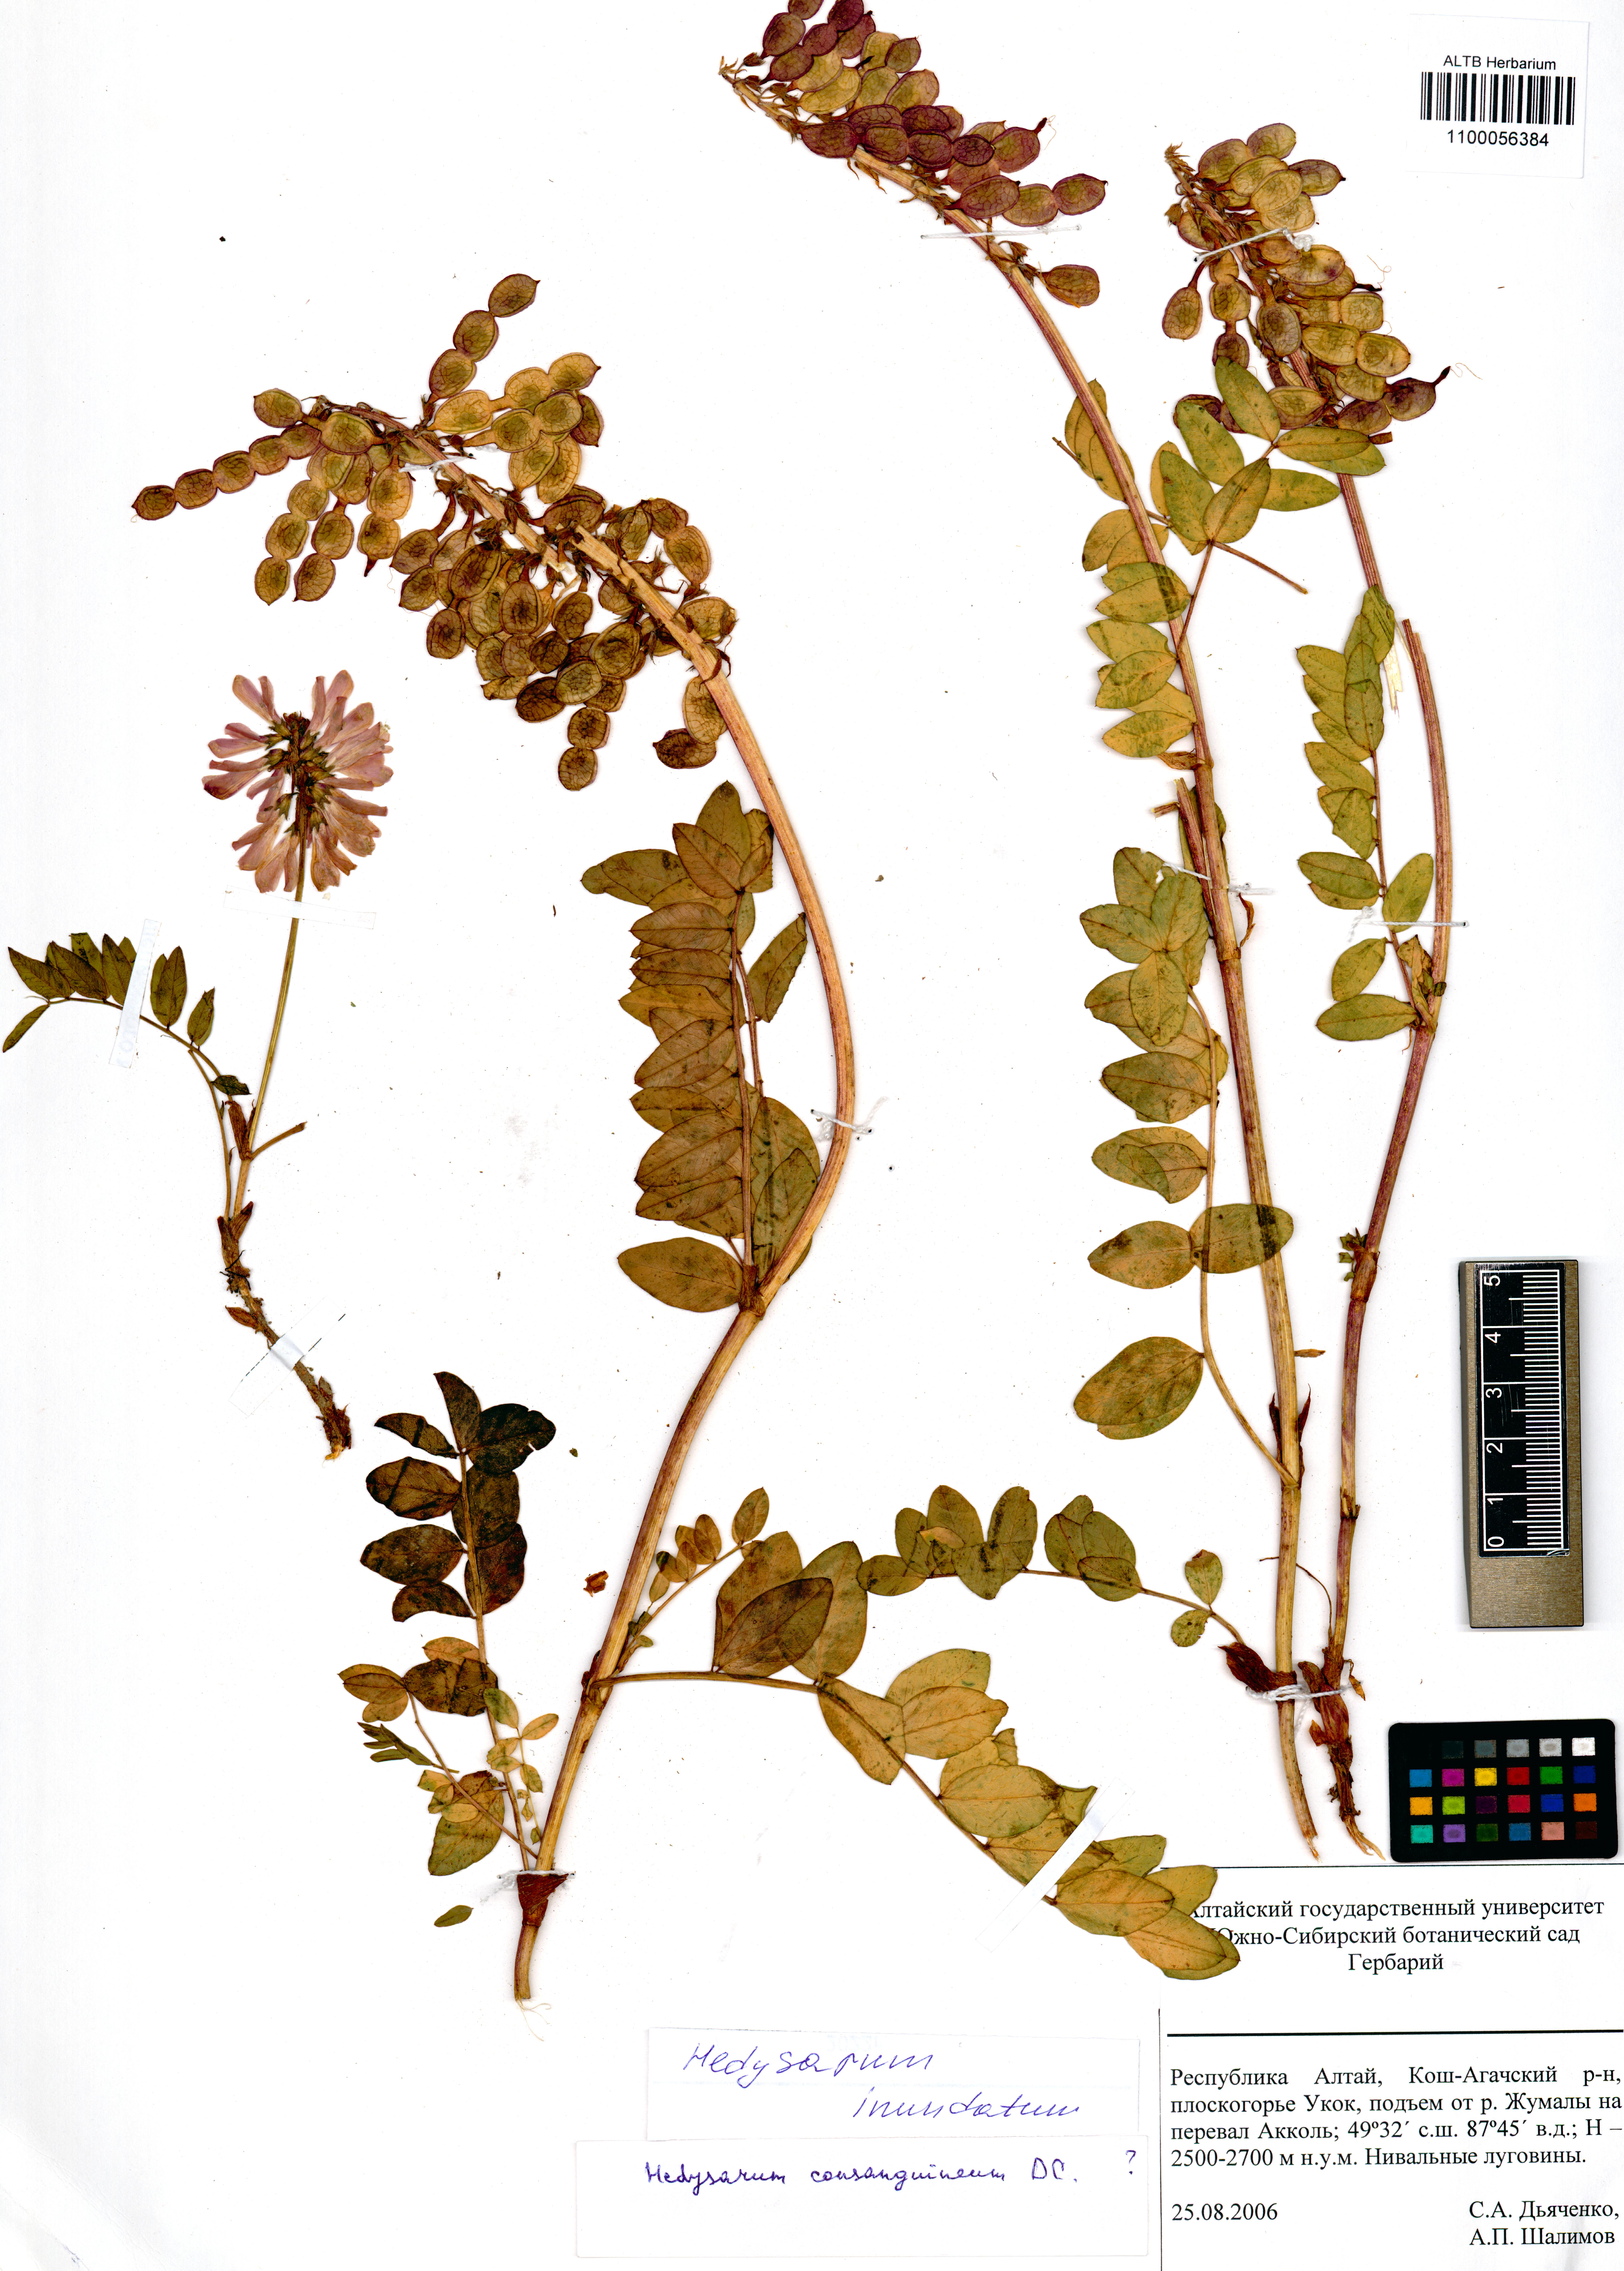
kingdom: Plantae
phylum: Tracheophyta
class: Magnoliopsida
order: Fabales
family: Fabaceae
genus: Hedysarum
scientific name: Hedysarum inundatum
